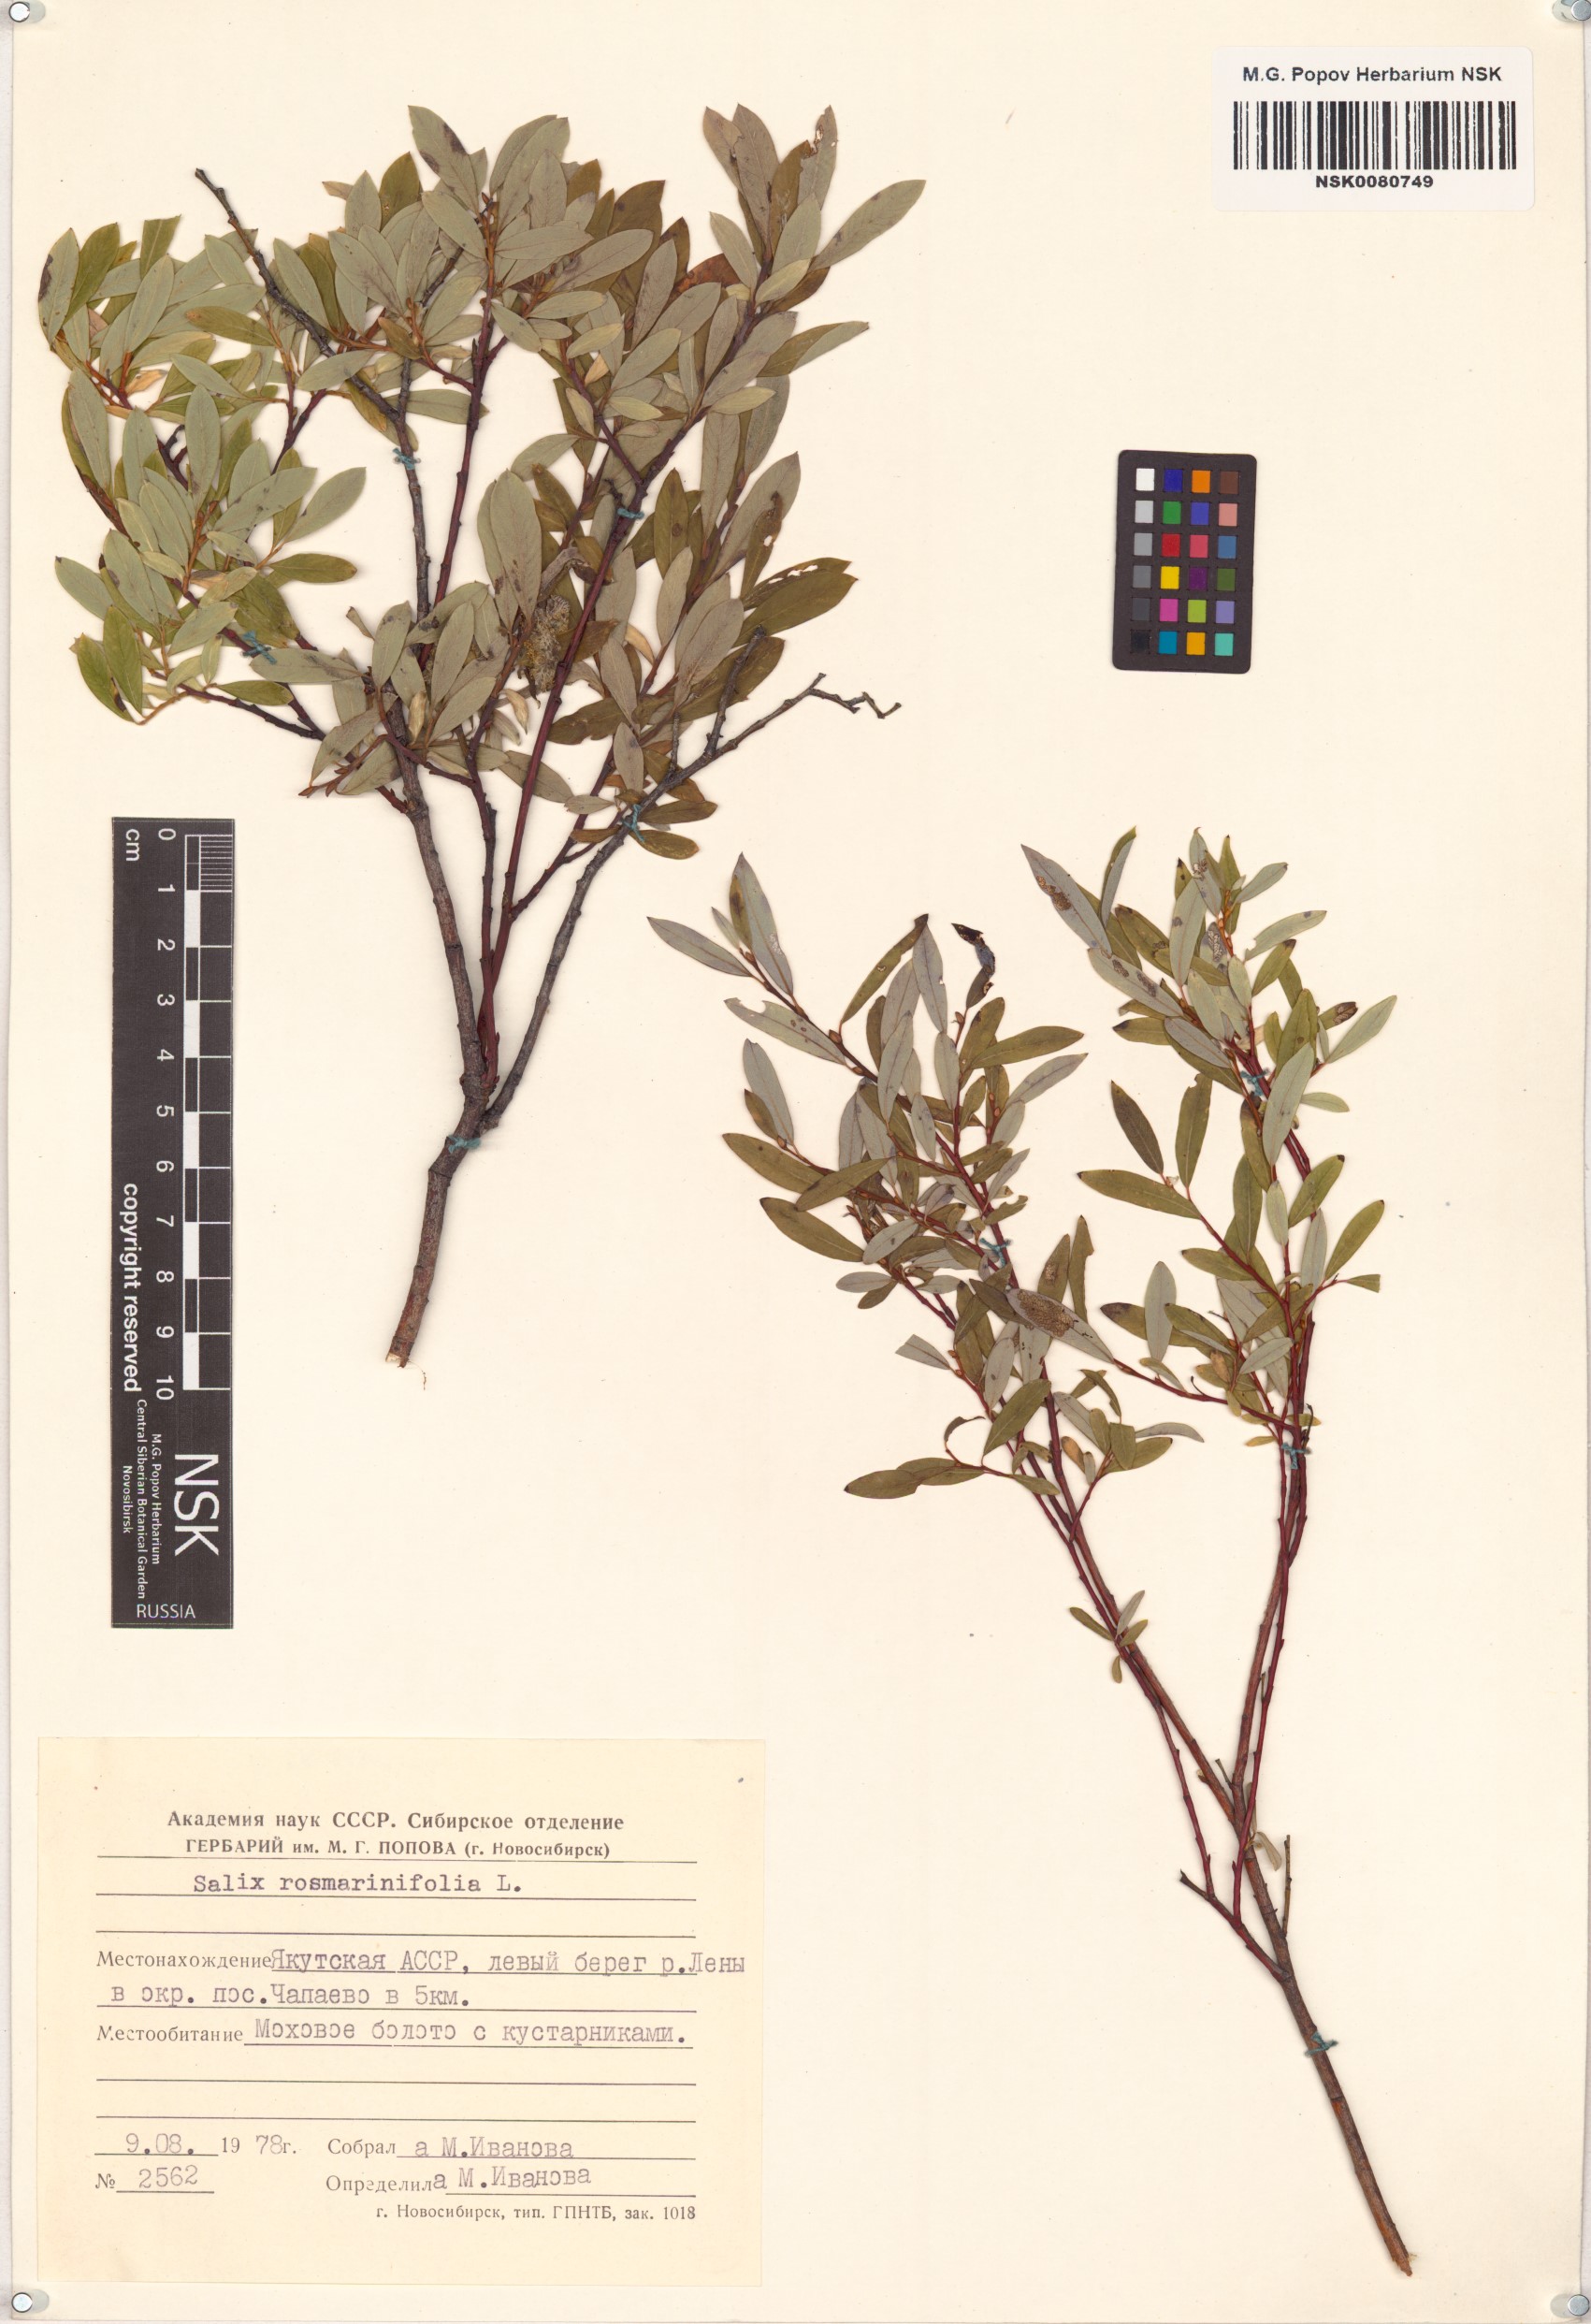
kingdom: Plantae
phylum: Tracheophyta
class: Magnoliopsida
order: Malpighiales
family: Salicaceae
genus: Salix
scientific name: Salix rosmarinifolia
